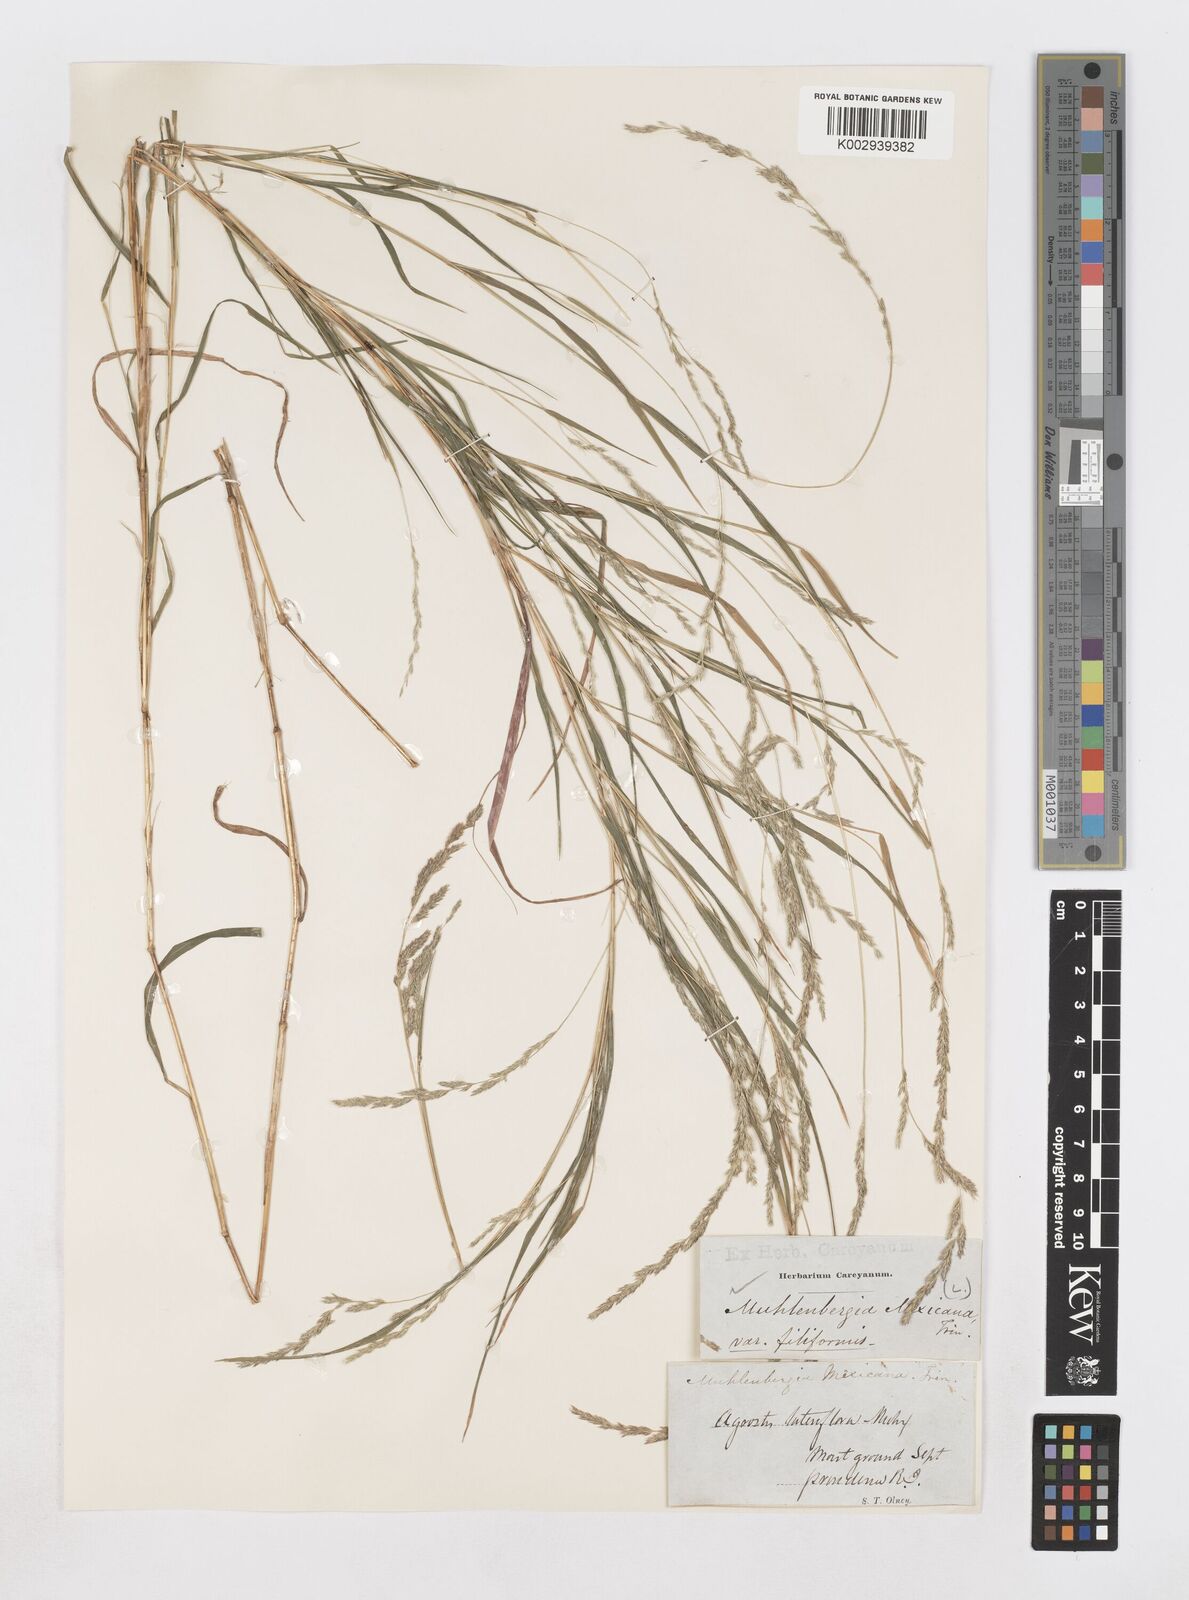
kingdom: Plantae
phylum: Tracheophyta
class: Liliopsida
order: Poales
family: Poaceae
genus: Muhlenbergia
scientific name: Muhlenbergia mexicana
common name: Mexican muhly
